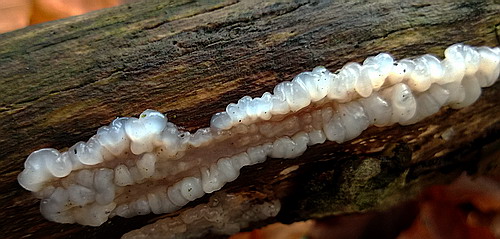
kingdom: Fungi
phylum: Basidiomycota
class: Agaricomycetes
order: Auriculariales
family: Auriculariaceae
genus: Exidia
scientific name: Exidia thuretiana
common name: hvidlig bævretop
